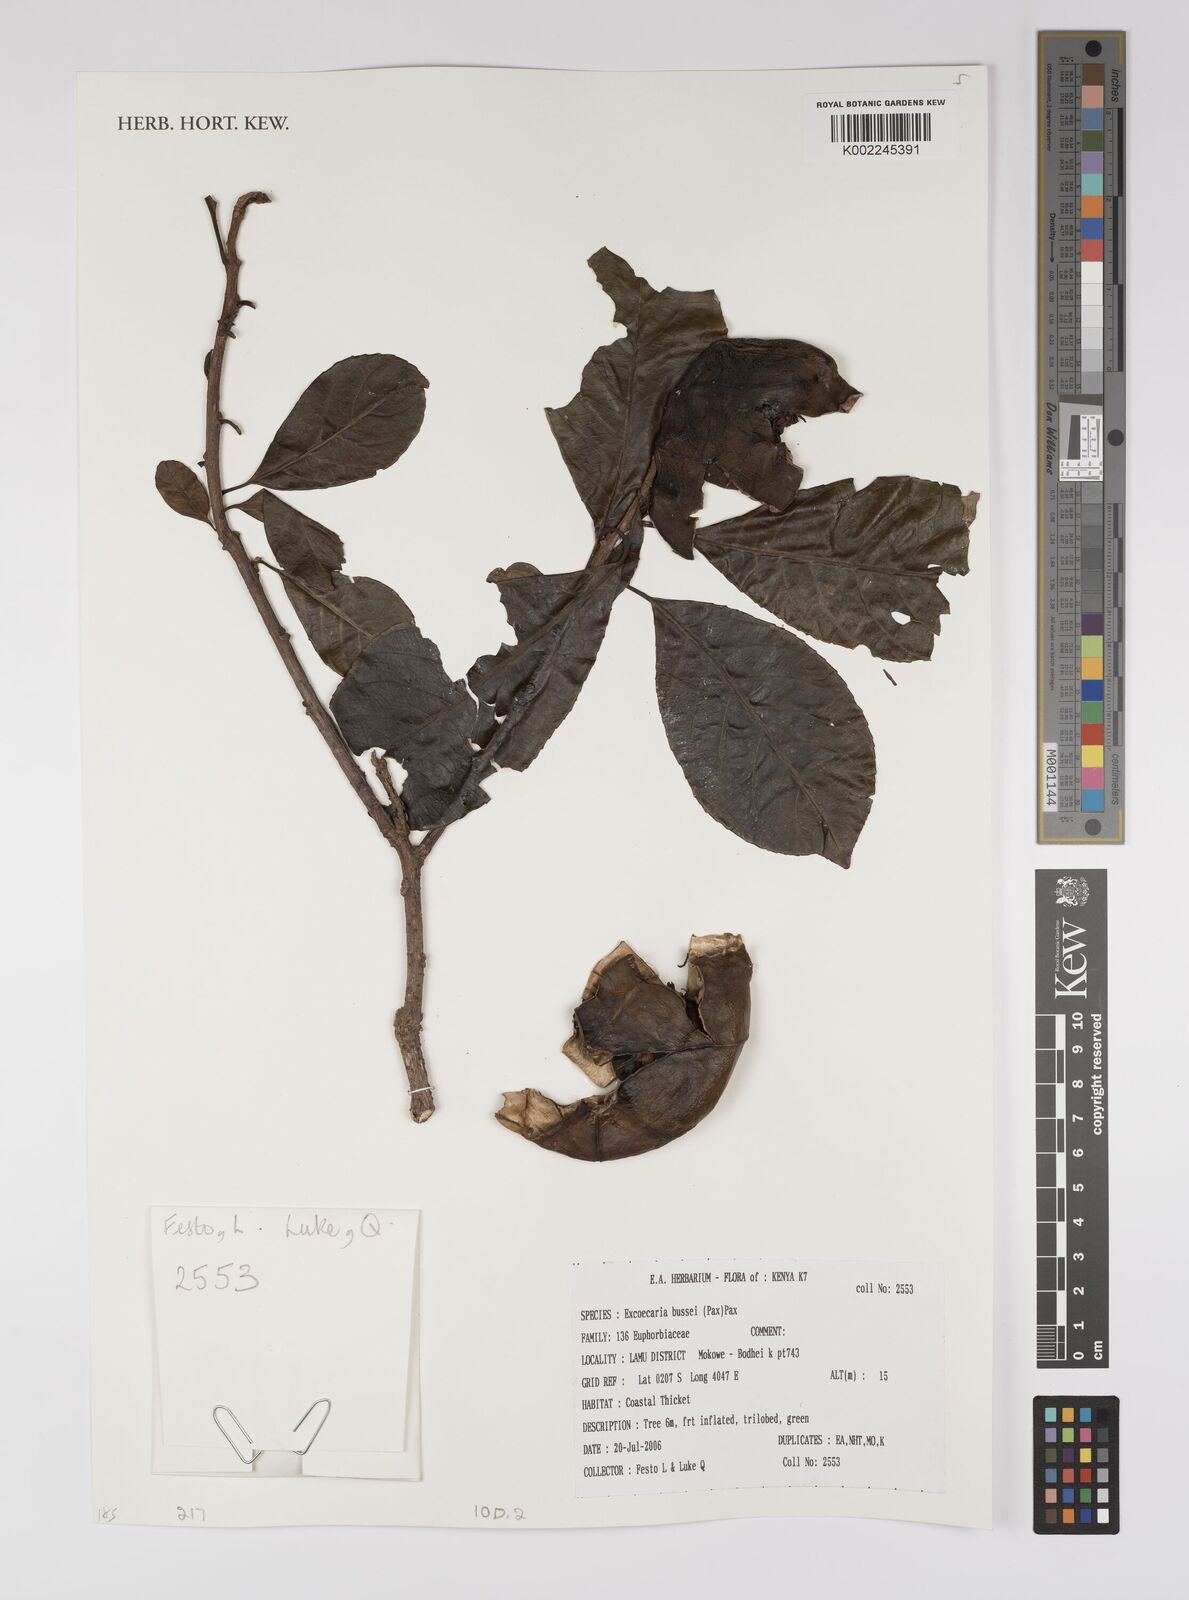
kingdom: Plantae
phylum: Tracheophyta
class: Magnoliopsida
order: Malpighiales
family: Euphorbiaceae
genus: Excoecaria
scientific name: Excoecaria bussei
